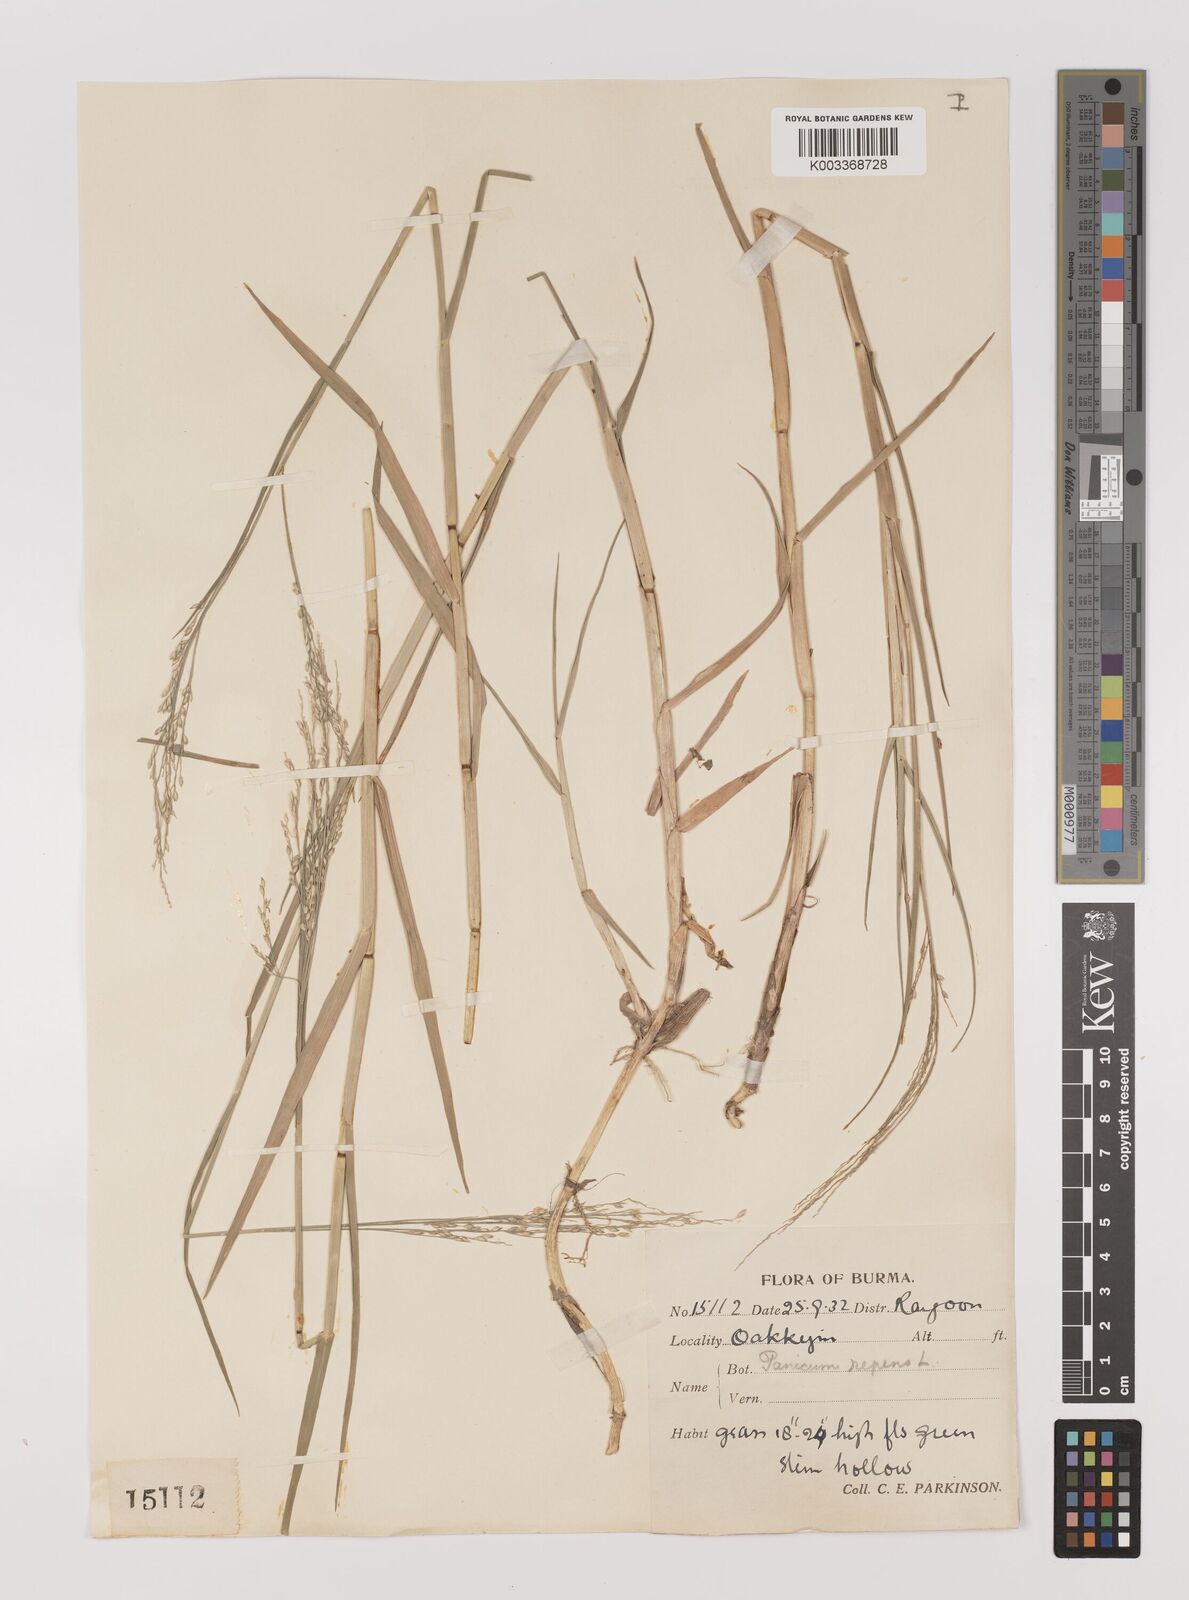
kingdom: Plantae
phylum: Tracheophyta
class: Liliopsida
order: Poales
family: Poaceae
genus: Panicum
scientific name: Panicum repens
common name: Torpedo grass
